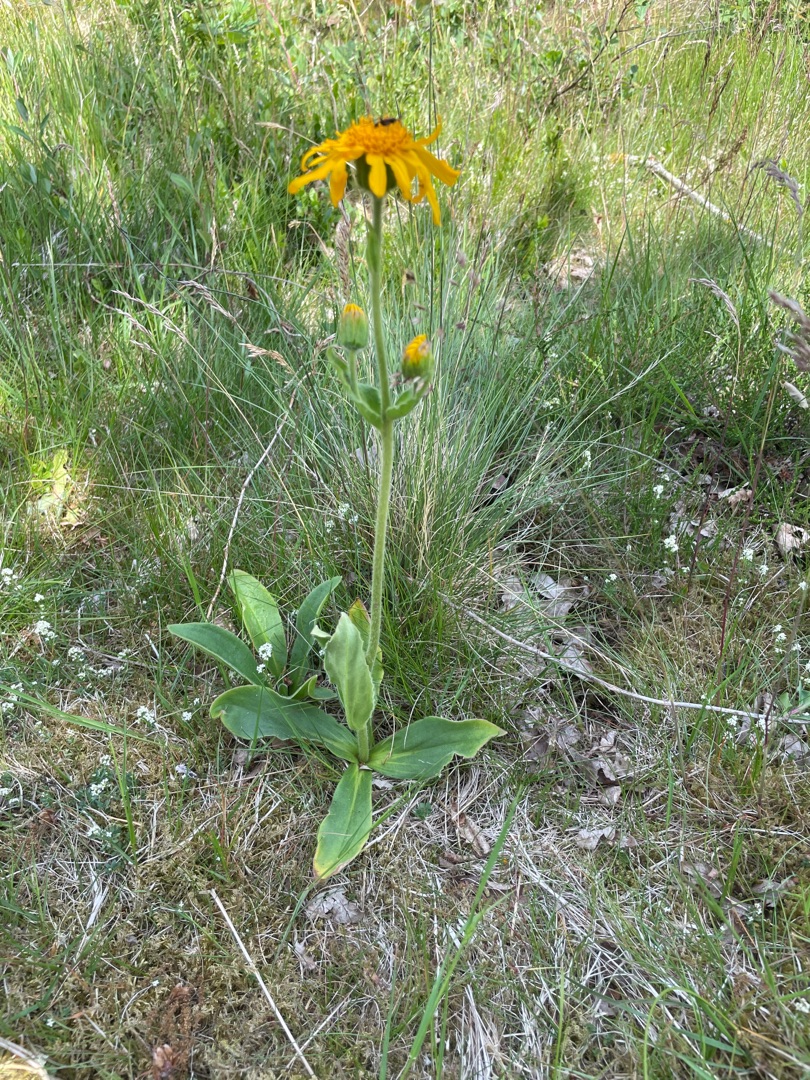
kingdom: Plantae
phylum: Tracheophyta
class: Magnoliopsida
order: Asterales
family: Asteraceae
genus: Arnica
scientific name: Arnica montana
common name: Guldblomme
